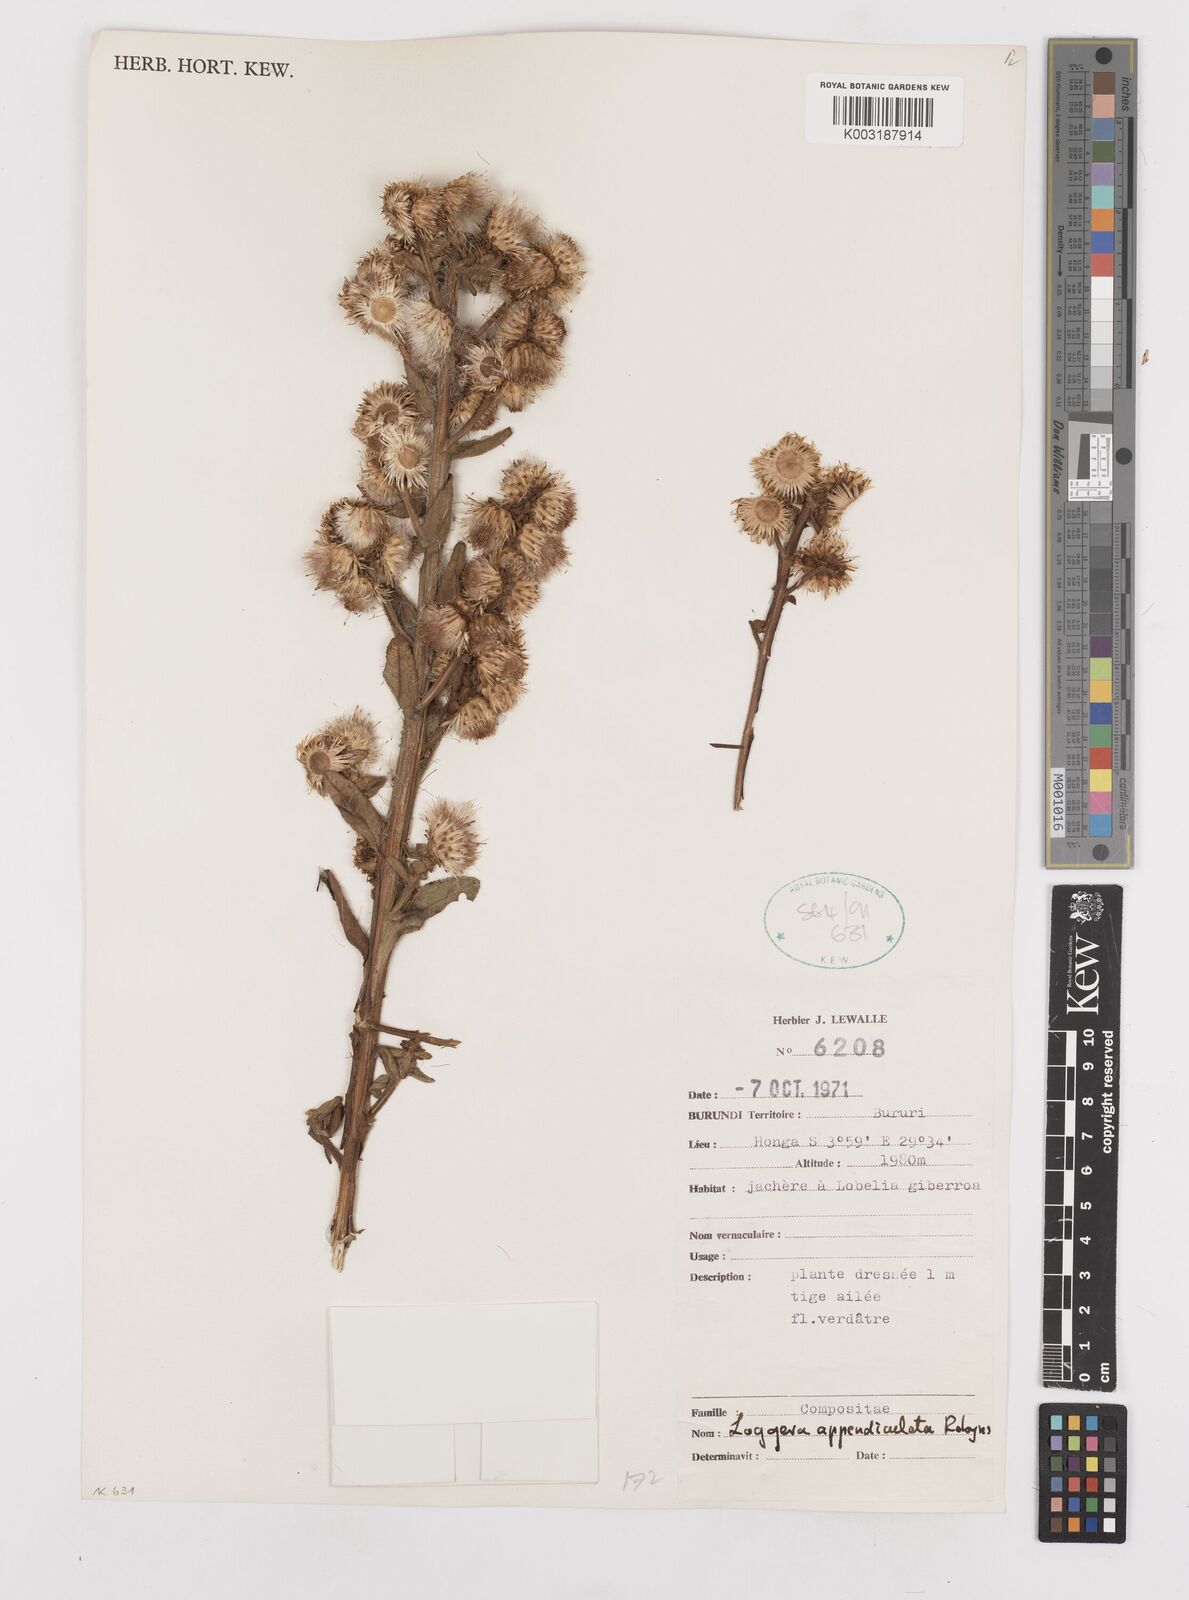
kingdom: Plantae
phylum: Tracheophyta
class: Magnoliopsida
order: Asterales
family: Asteraceae
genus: Laggera
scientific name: Laggera brevipes
